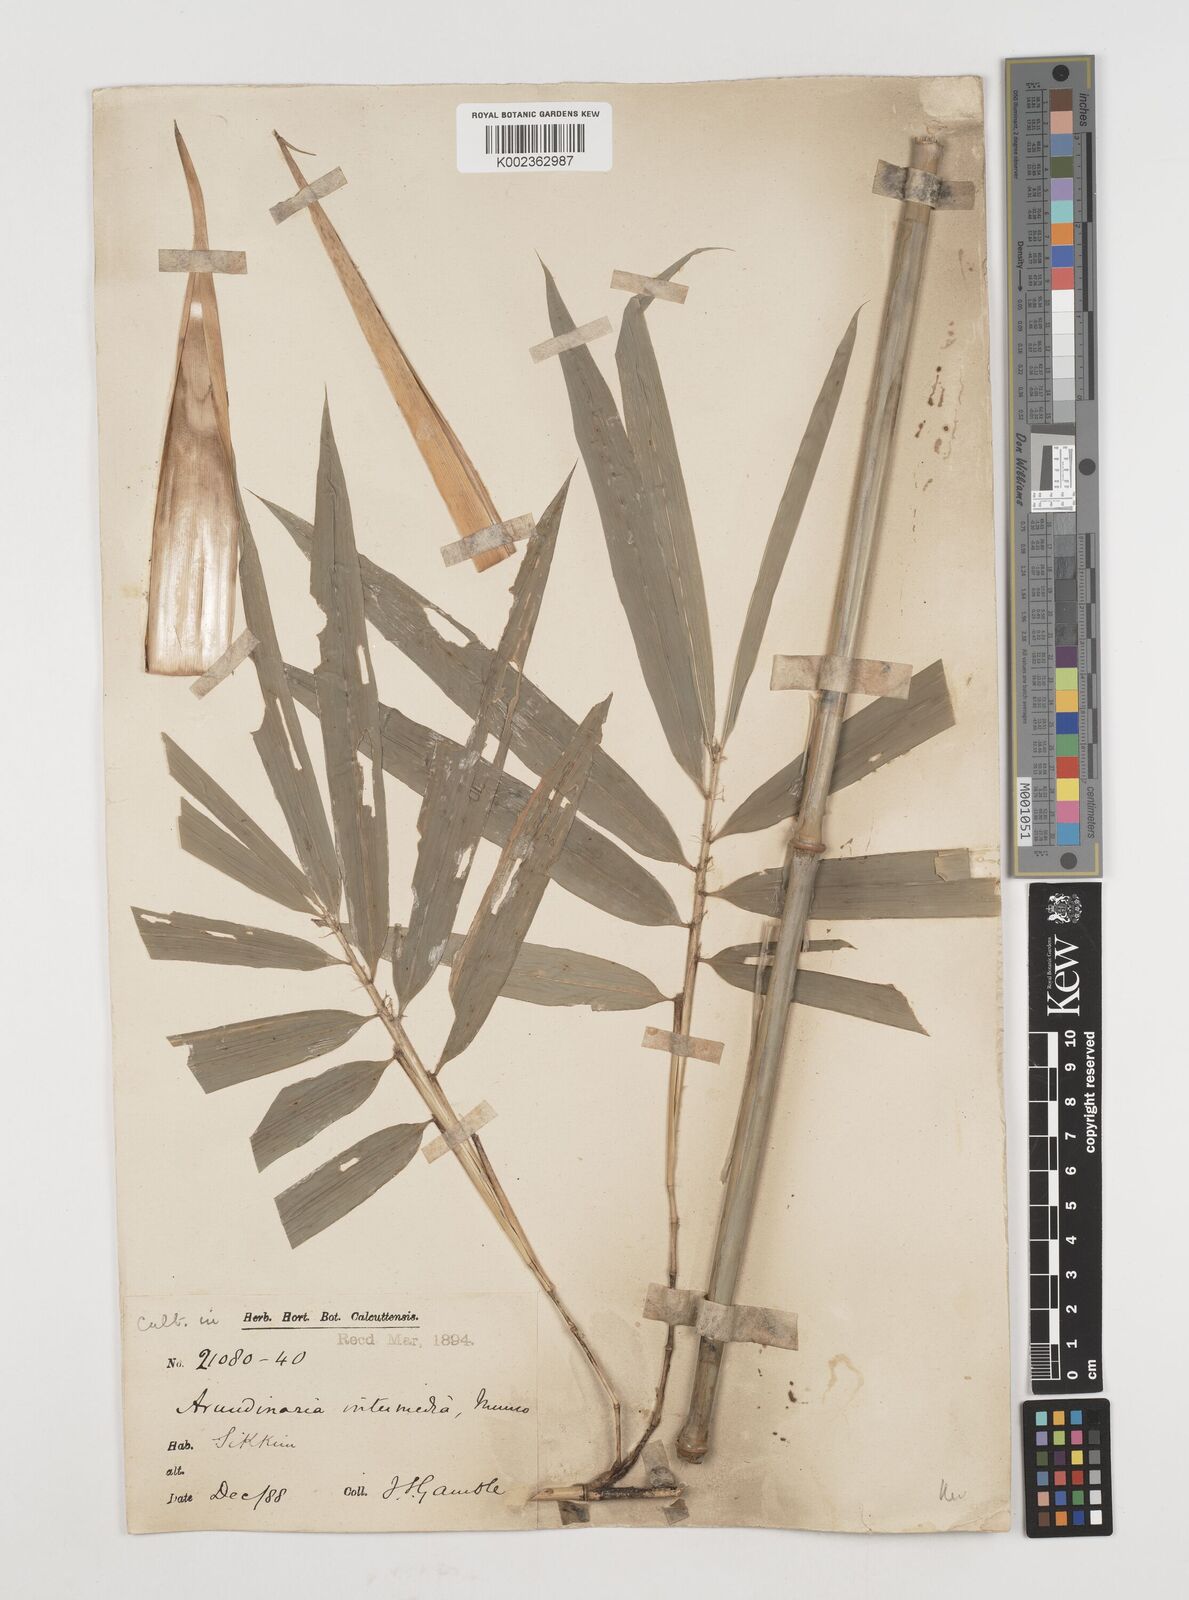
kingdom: Plantae
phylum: Tracheophyta
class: Liliopsida
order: Poales
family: Poaceae
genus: Drepanostachyum
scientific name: Drepanostachyum intermedium
